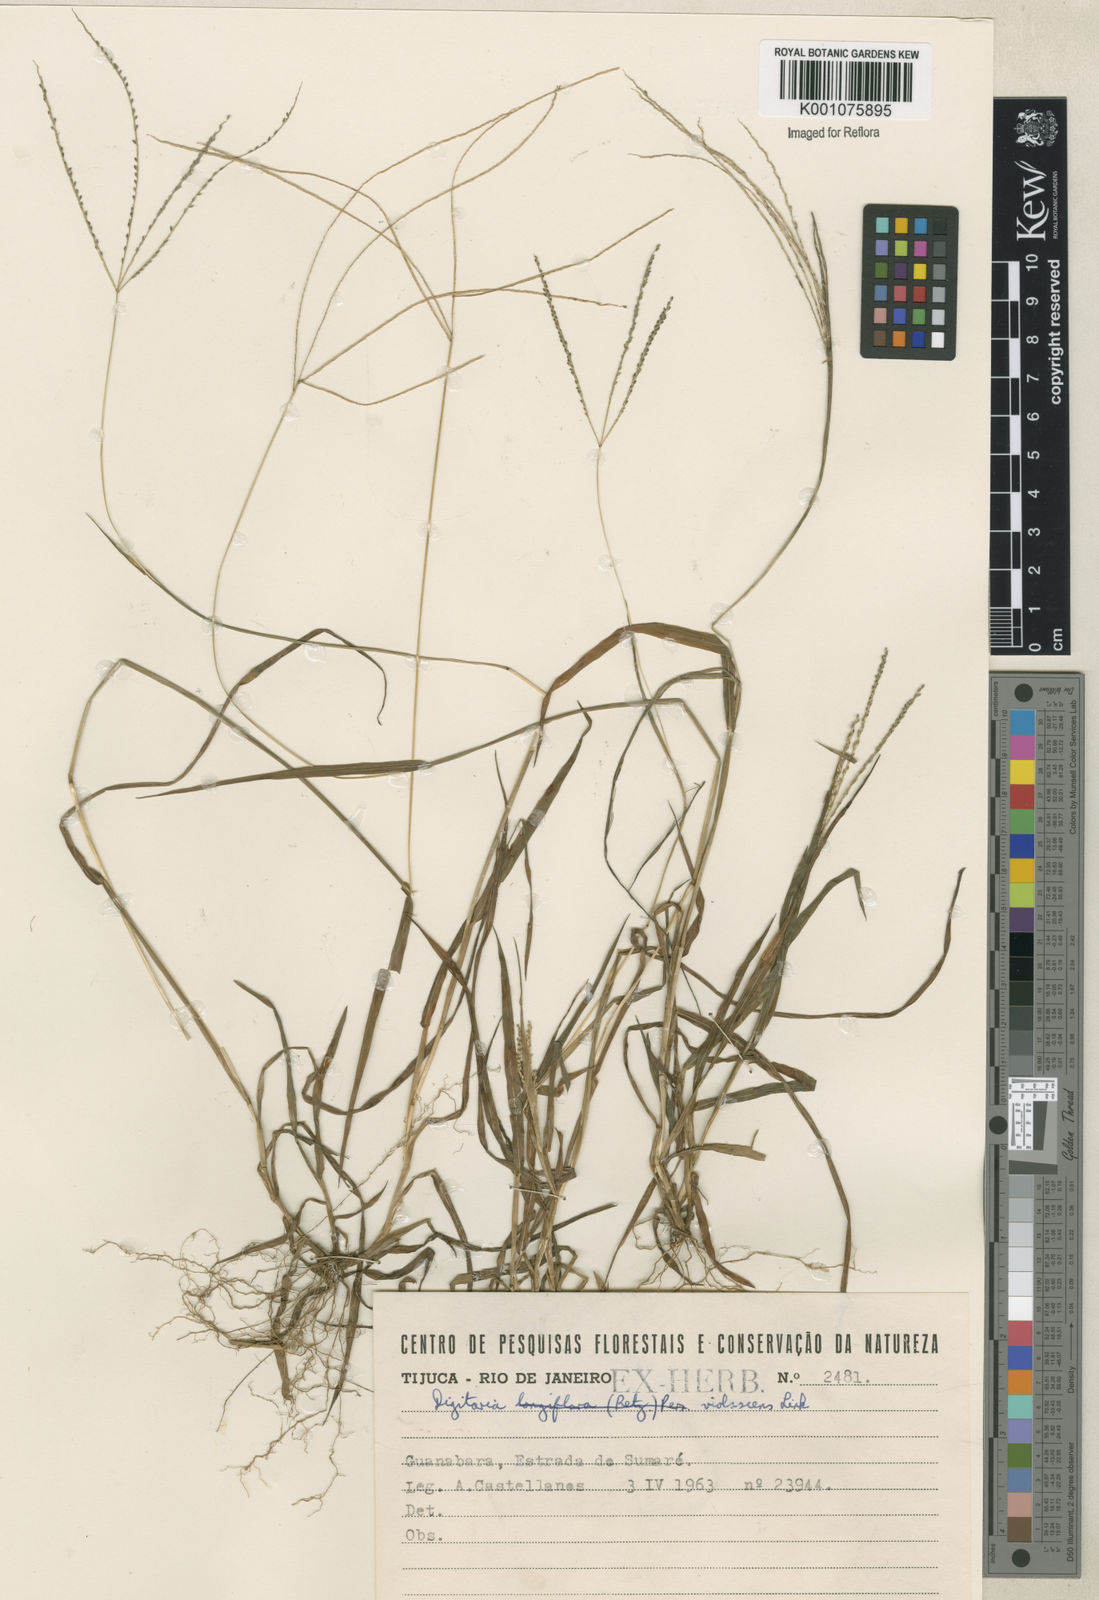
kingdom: Plantae
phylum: Tracheophyta
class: Liliopsida
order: Poales
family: Poaceae
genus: Digitaria
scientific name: Digitaria violascens
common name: Violet crabgrass
